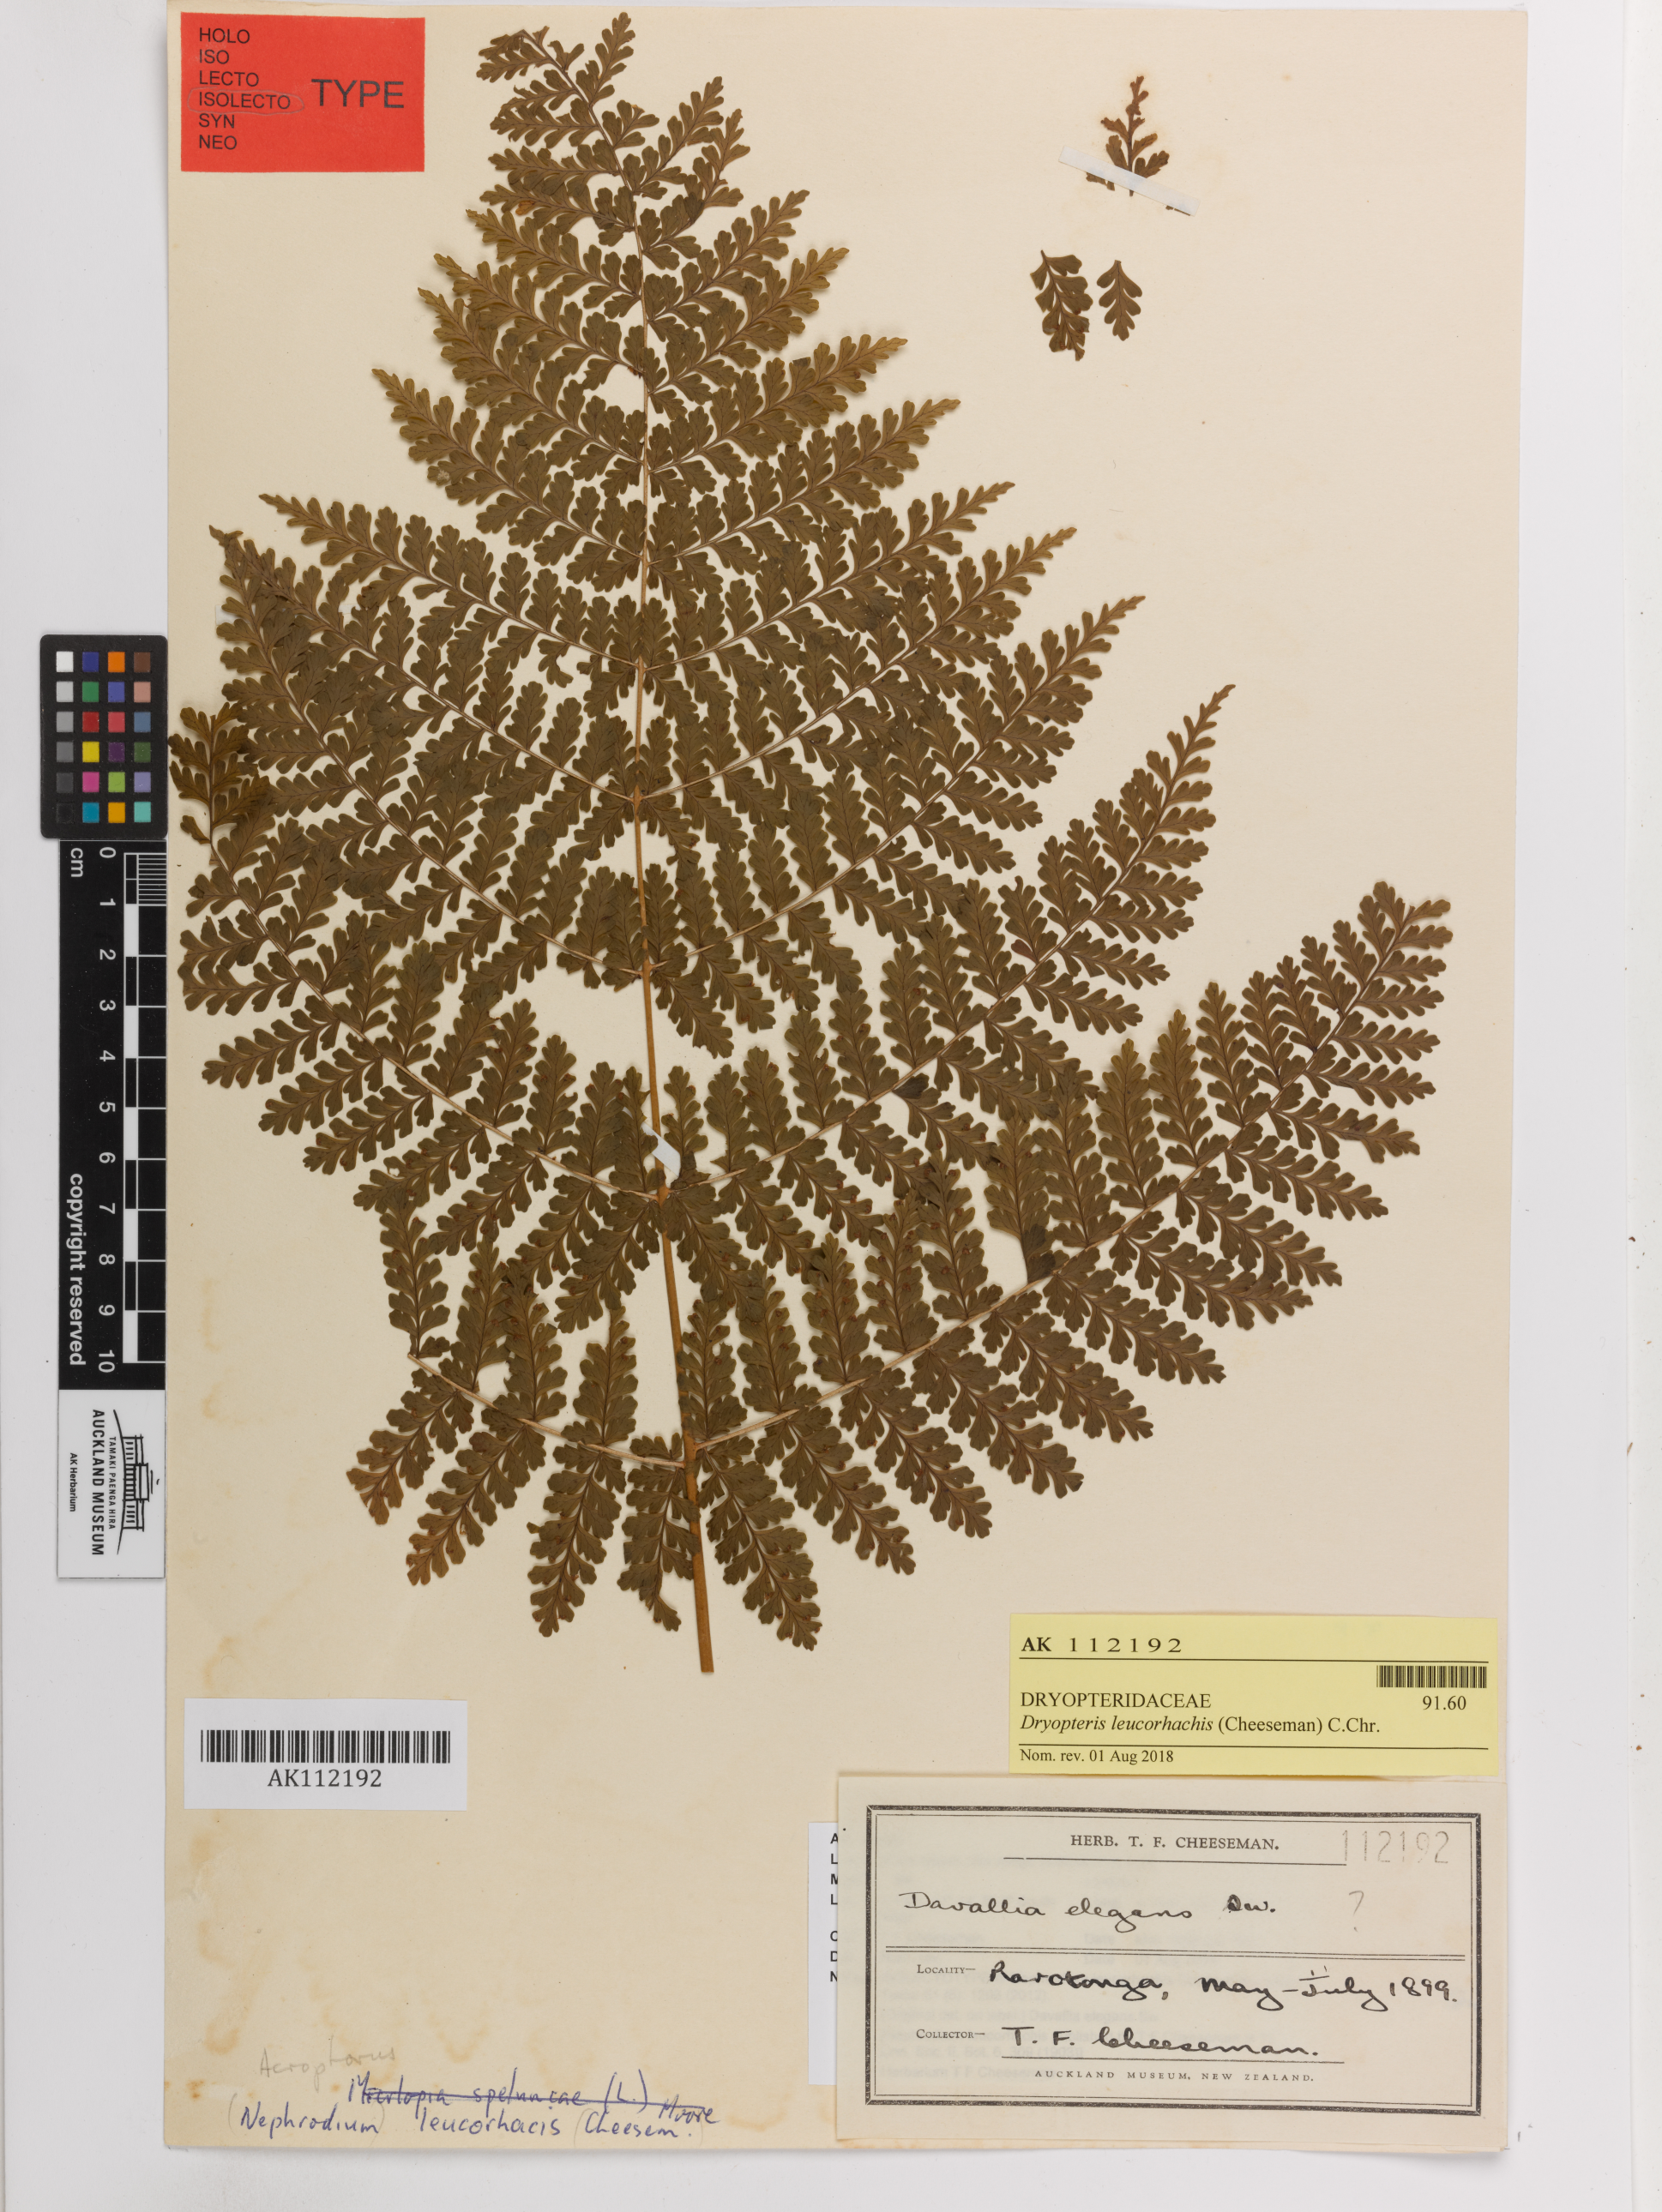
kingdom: Plantae
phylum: Tracheophyta
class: Polypodiopsida
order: Polypodiales
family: Dryopteridaceae
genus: Dryopteris
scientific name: Dryopteris leucorhachis
